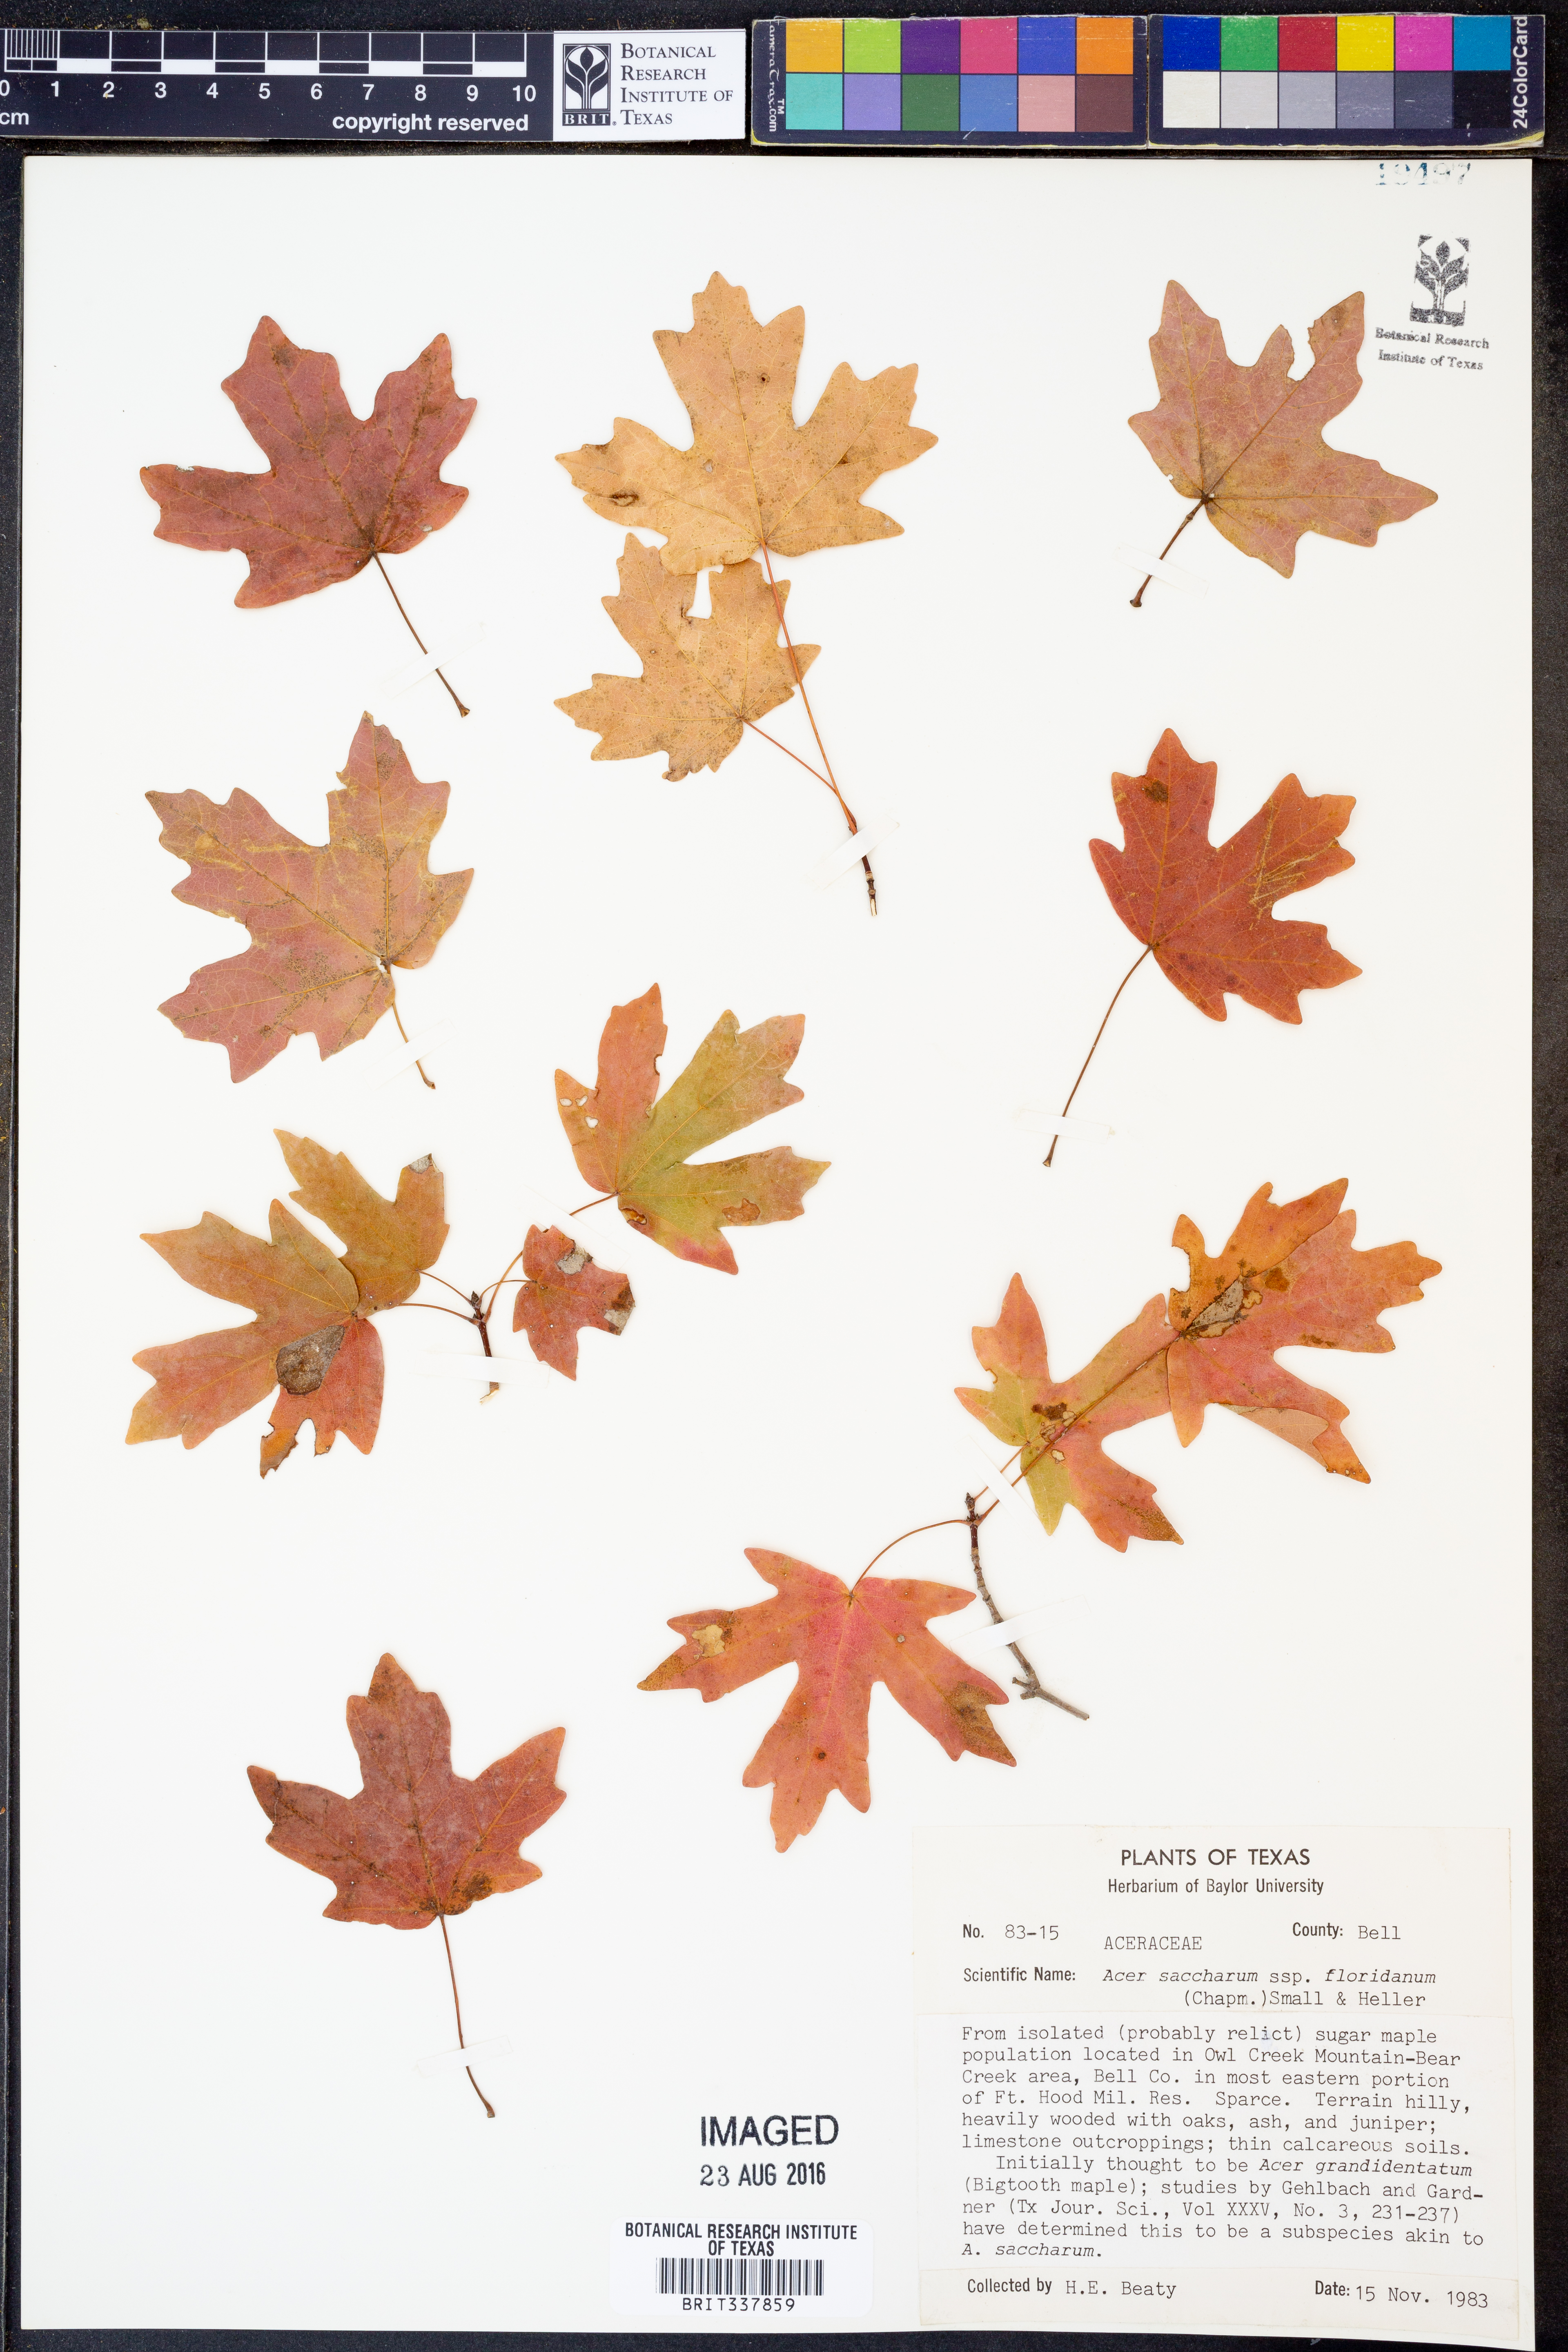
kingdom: Plantae
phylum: Tracheophyta
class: Magnoliopsida
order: Sapindales
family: Sapindaceae
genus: Acer
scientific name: Acer barbatum
